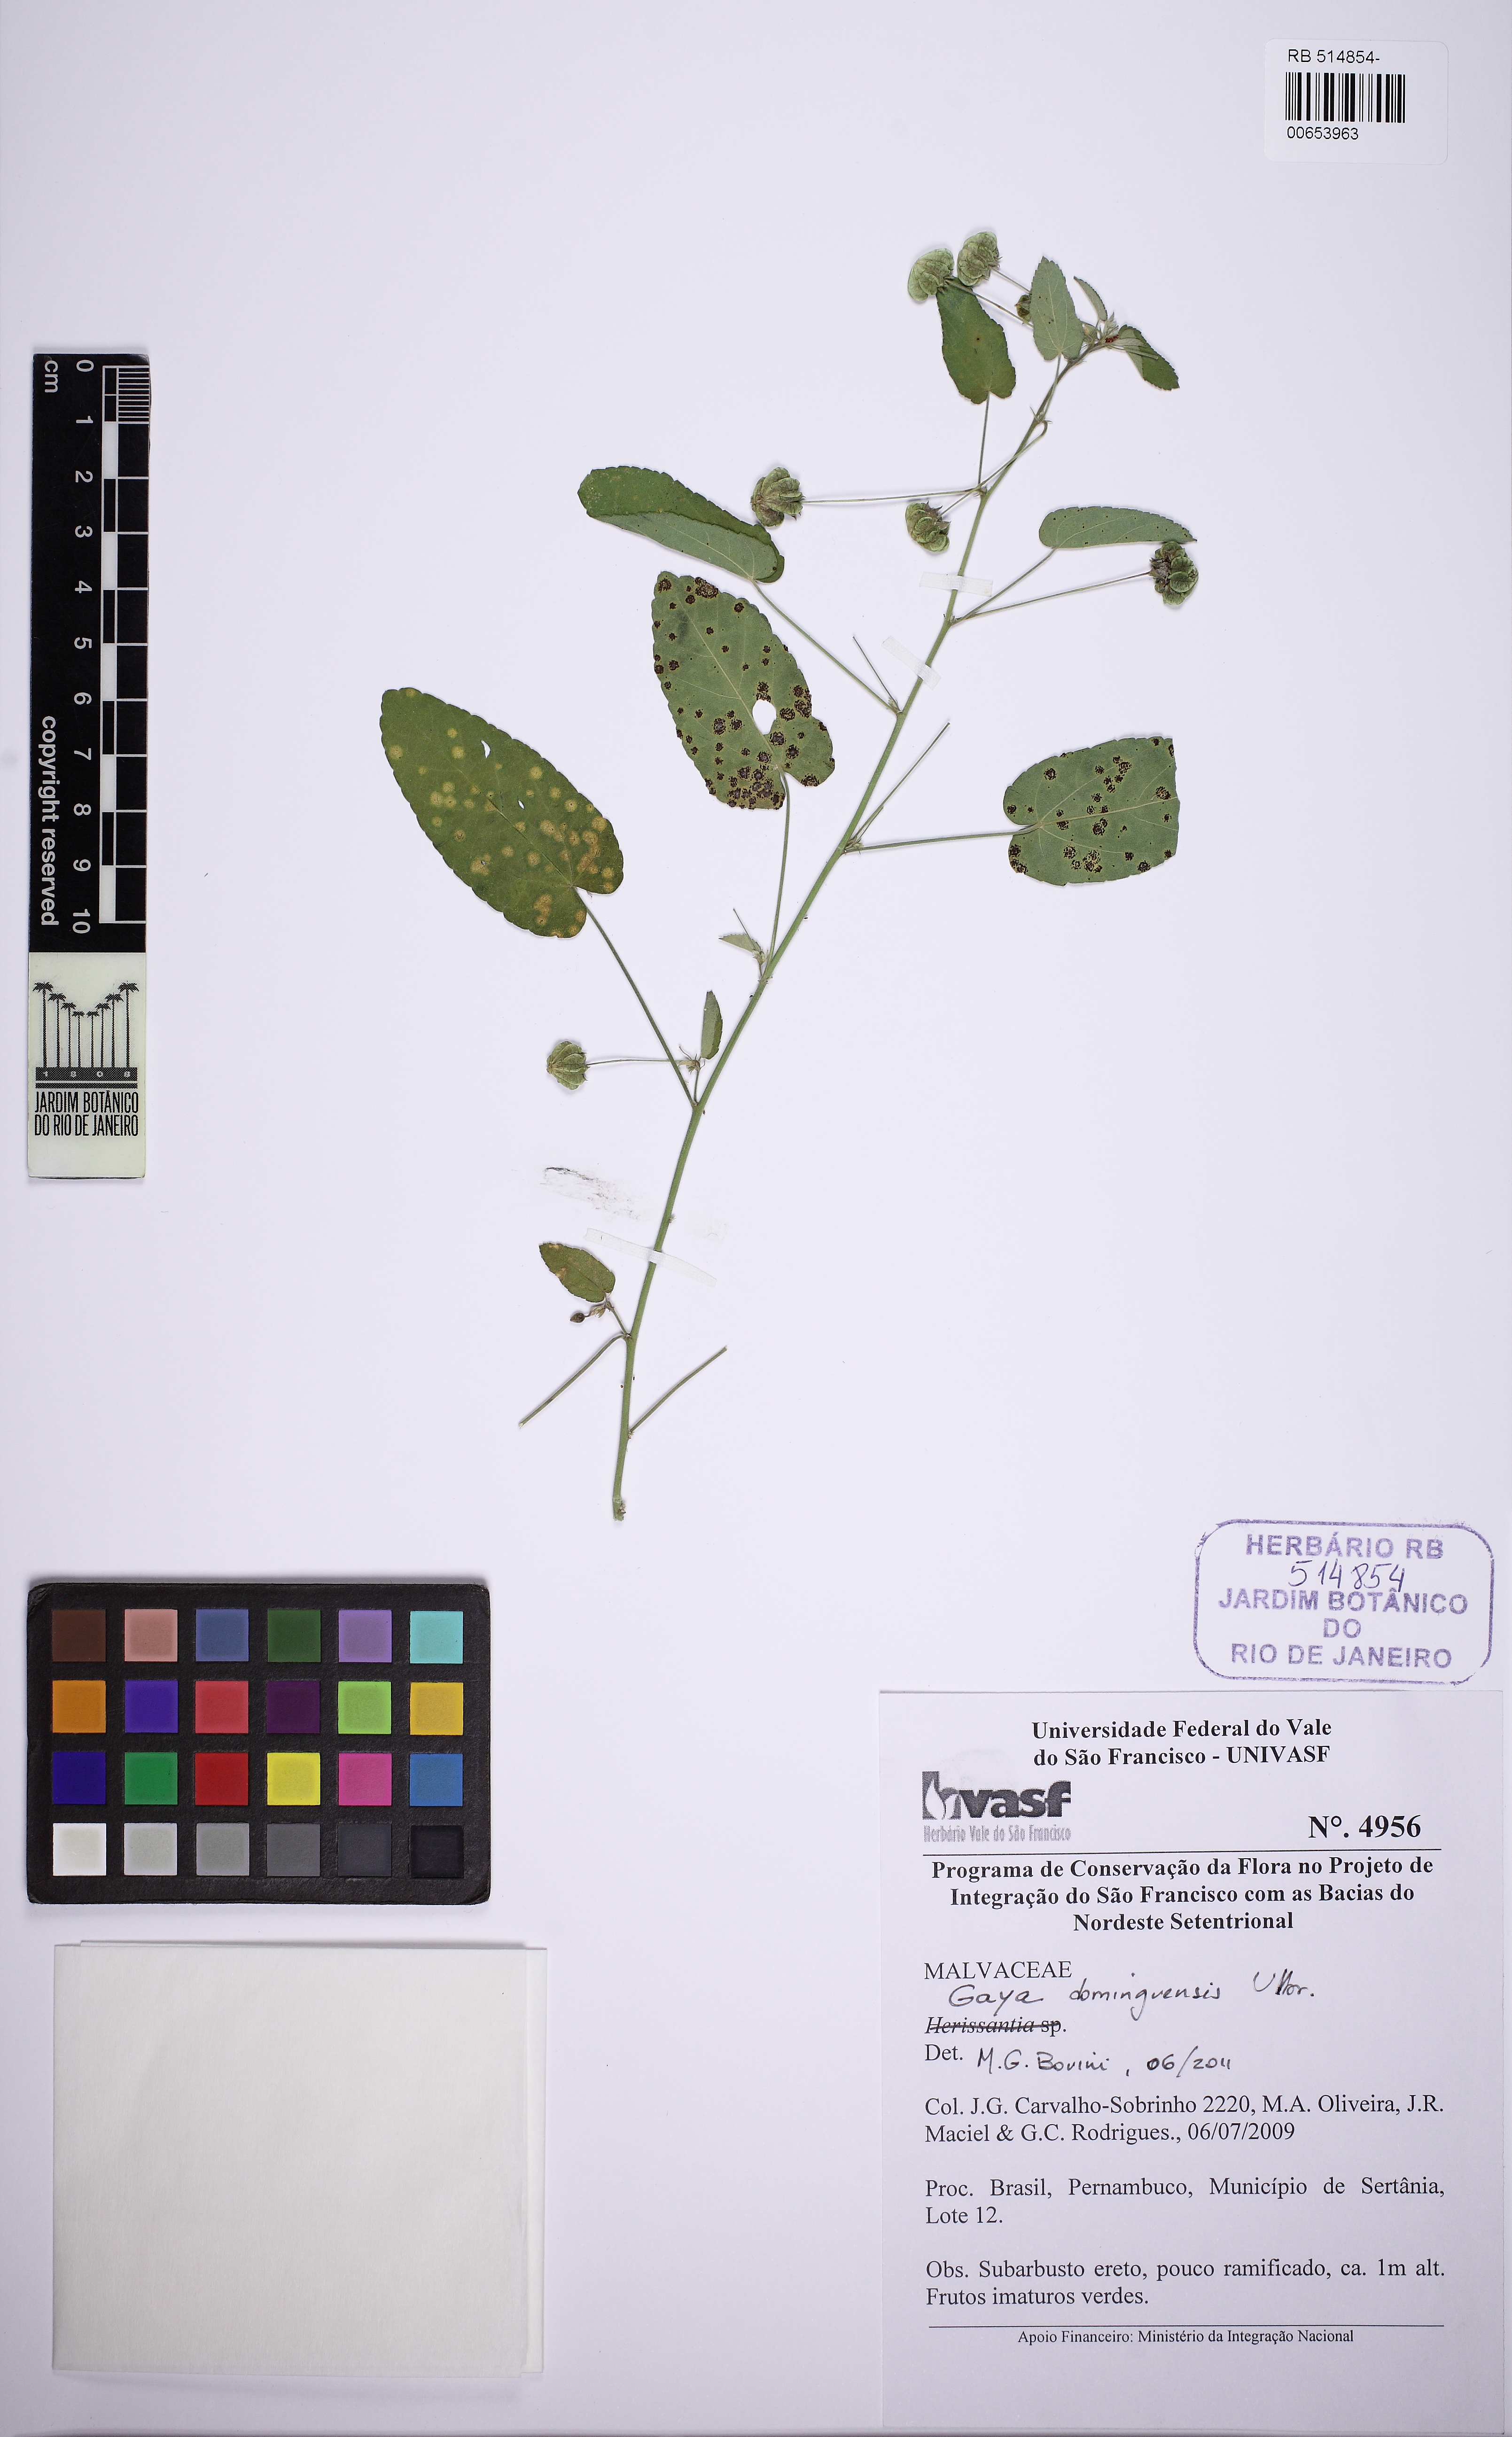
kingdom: Plantae
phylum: Tracheophyta
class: Magnoliopsida
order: Malvales
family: Malvaceae
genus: Gaya
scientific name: Gaya domingensis
